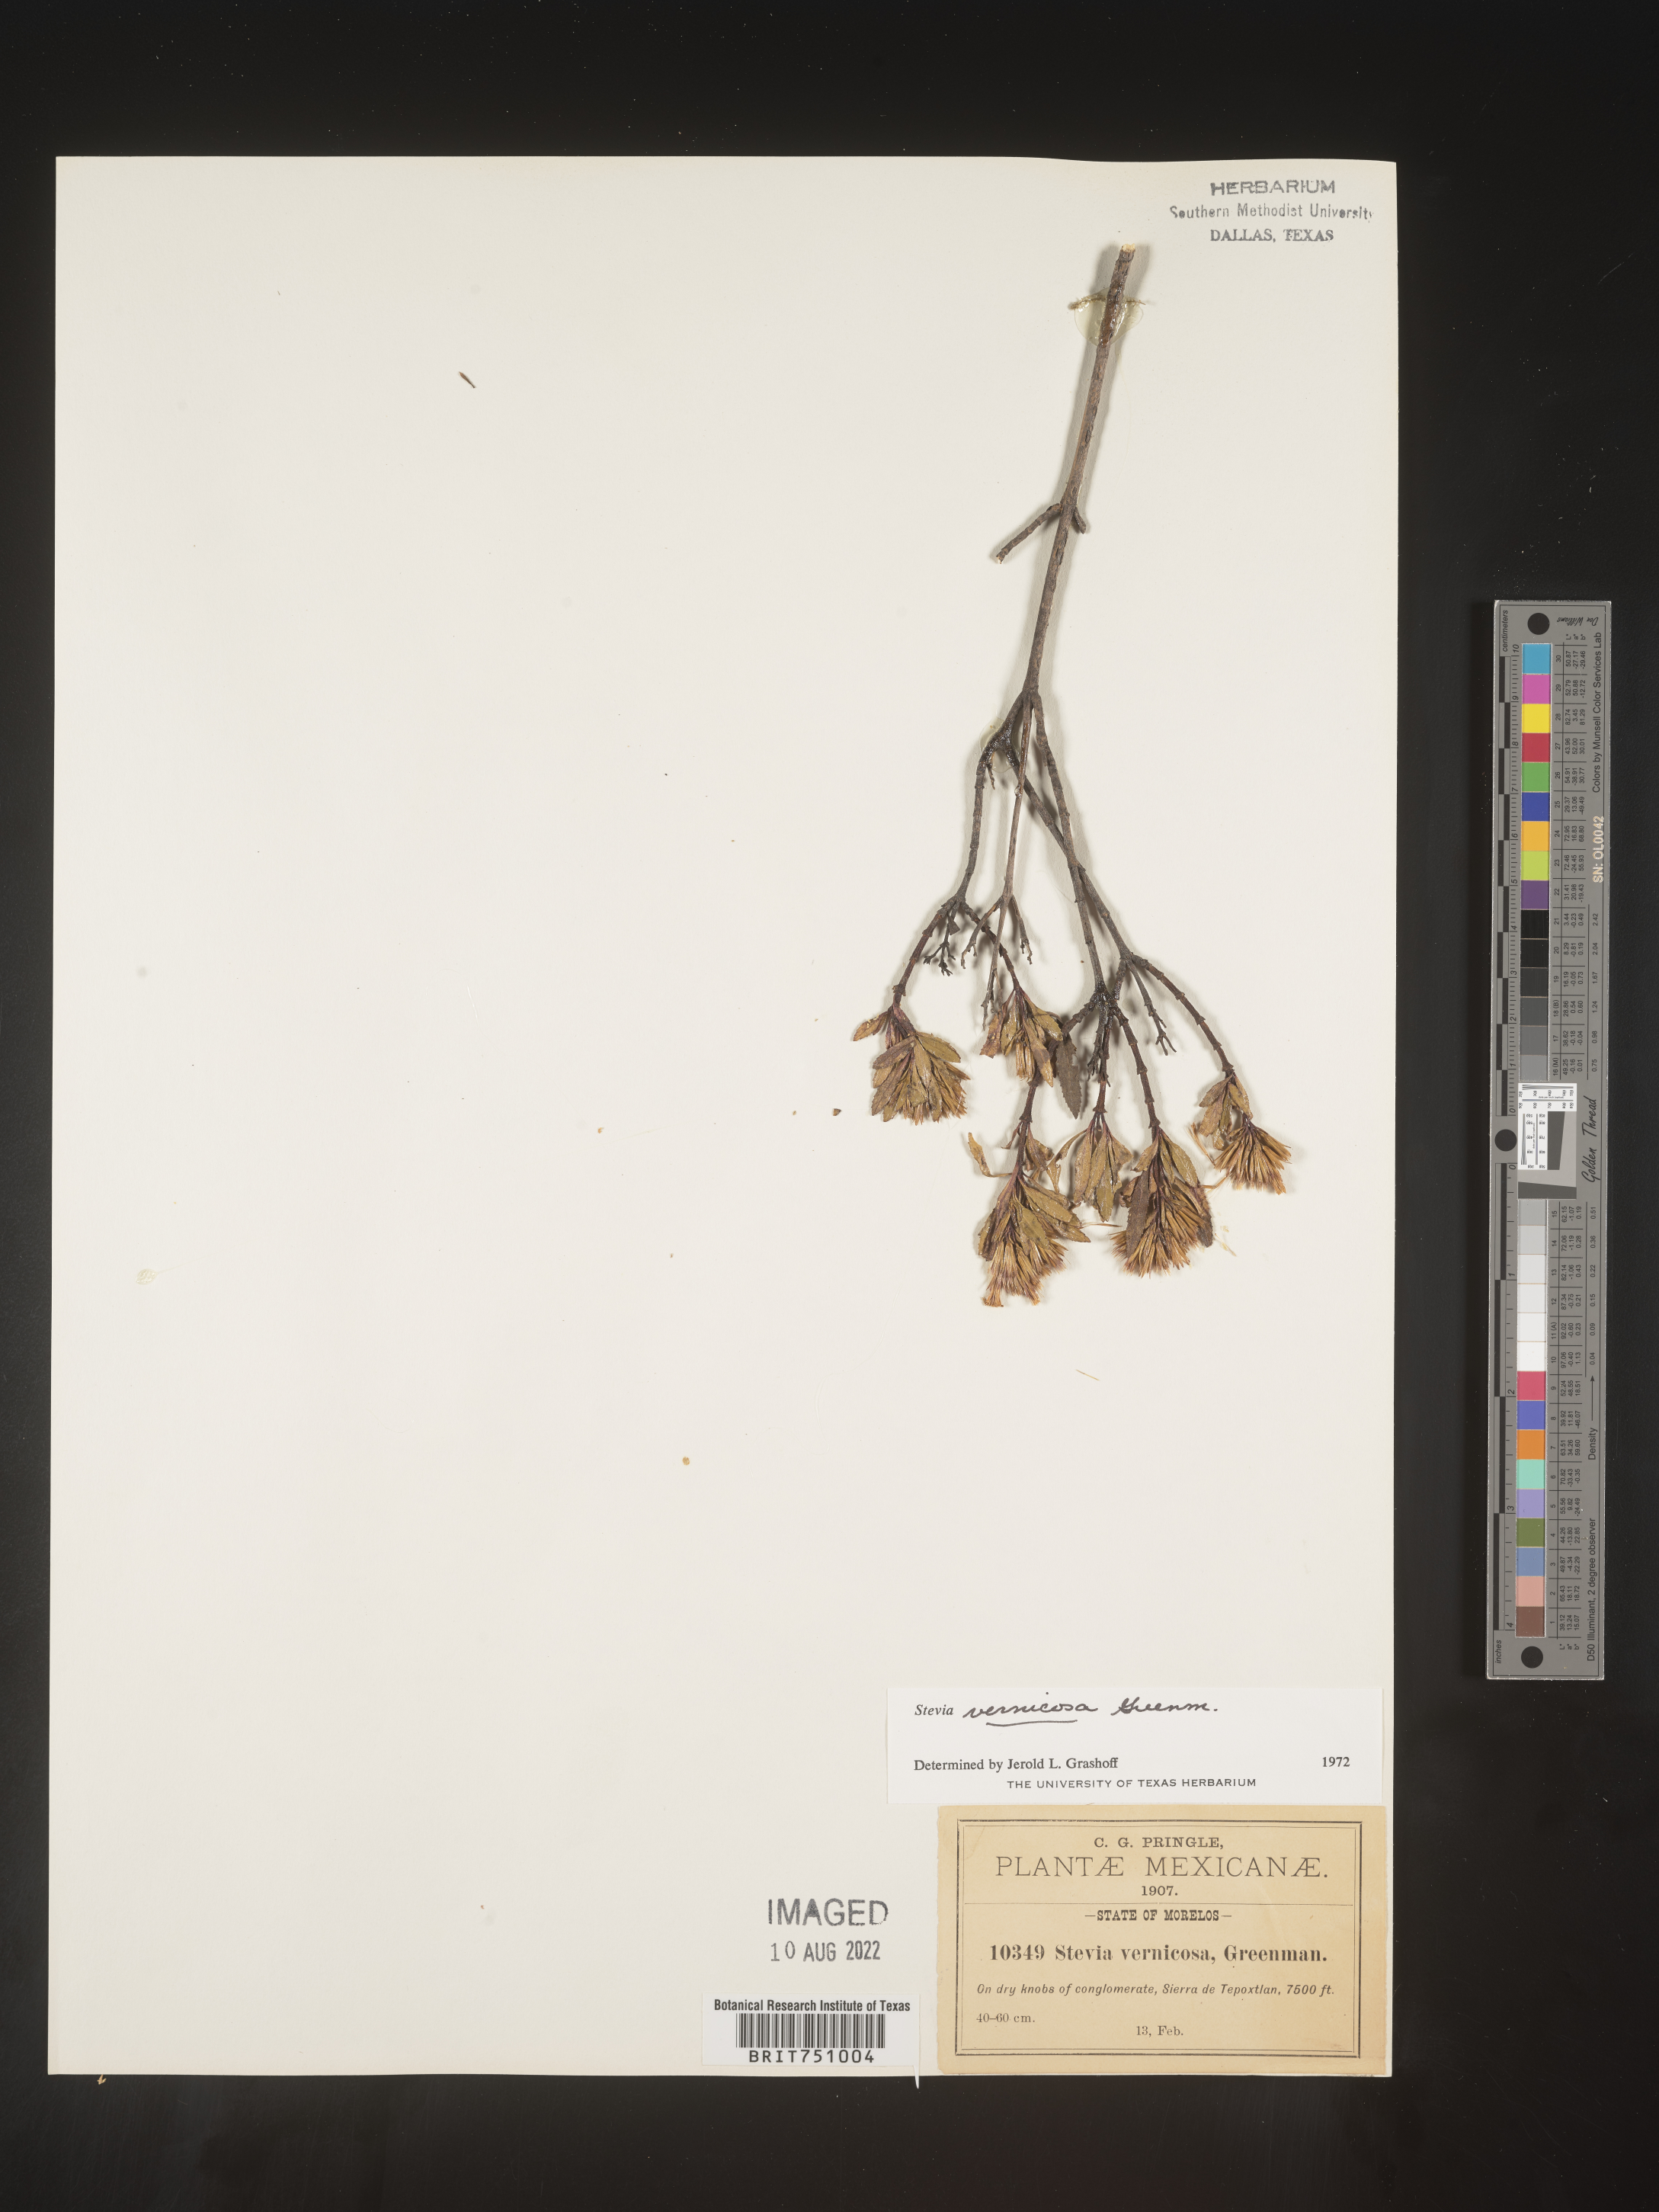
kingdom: Plantae
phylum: Tracheophyta
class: Magnoliopsida
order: Asterales
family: Asteraceae
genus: Stevia
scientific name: Stevia
